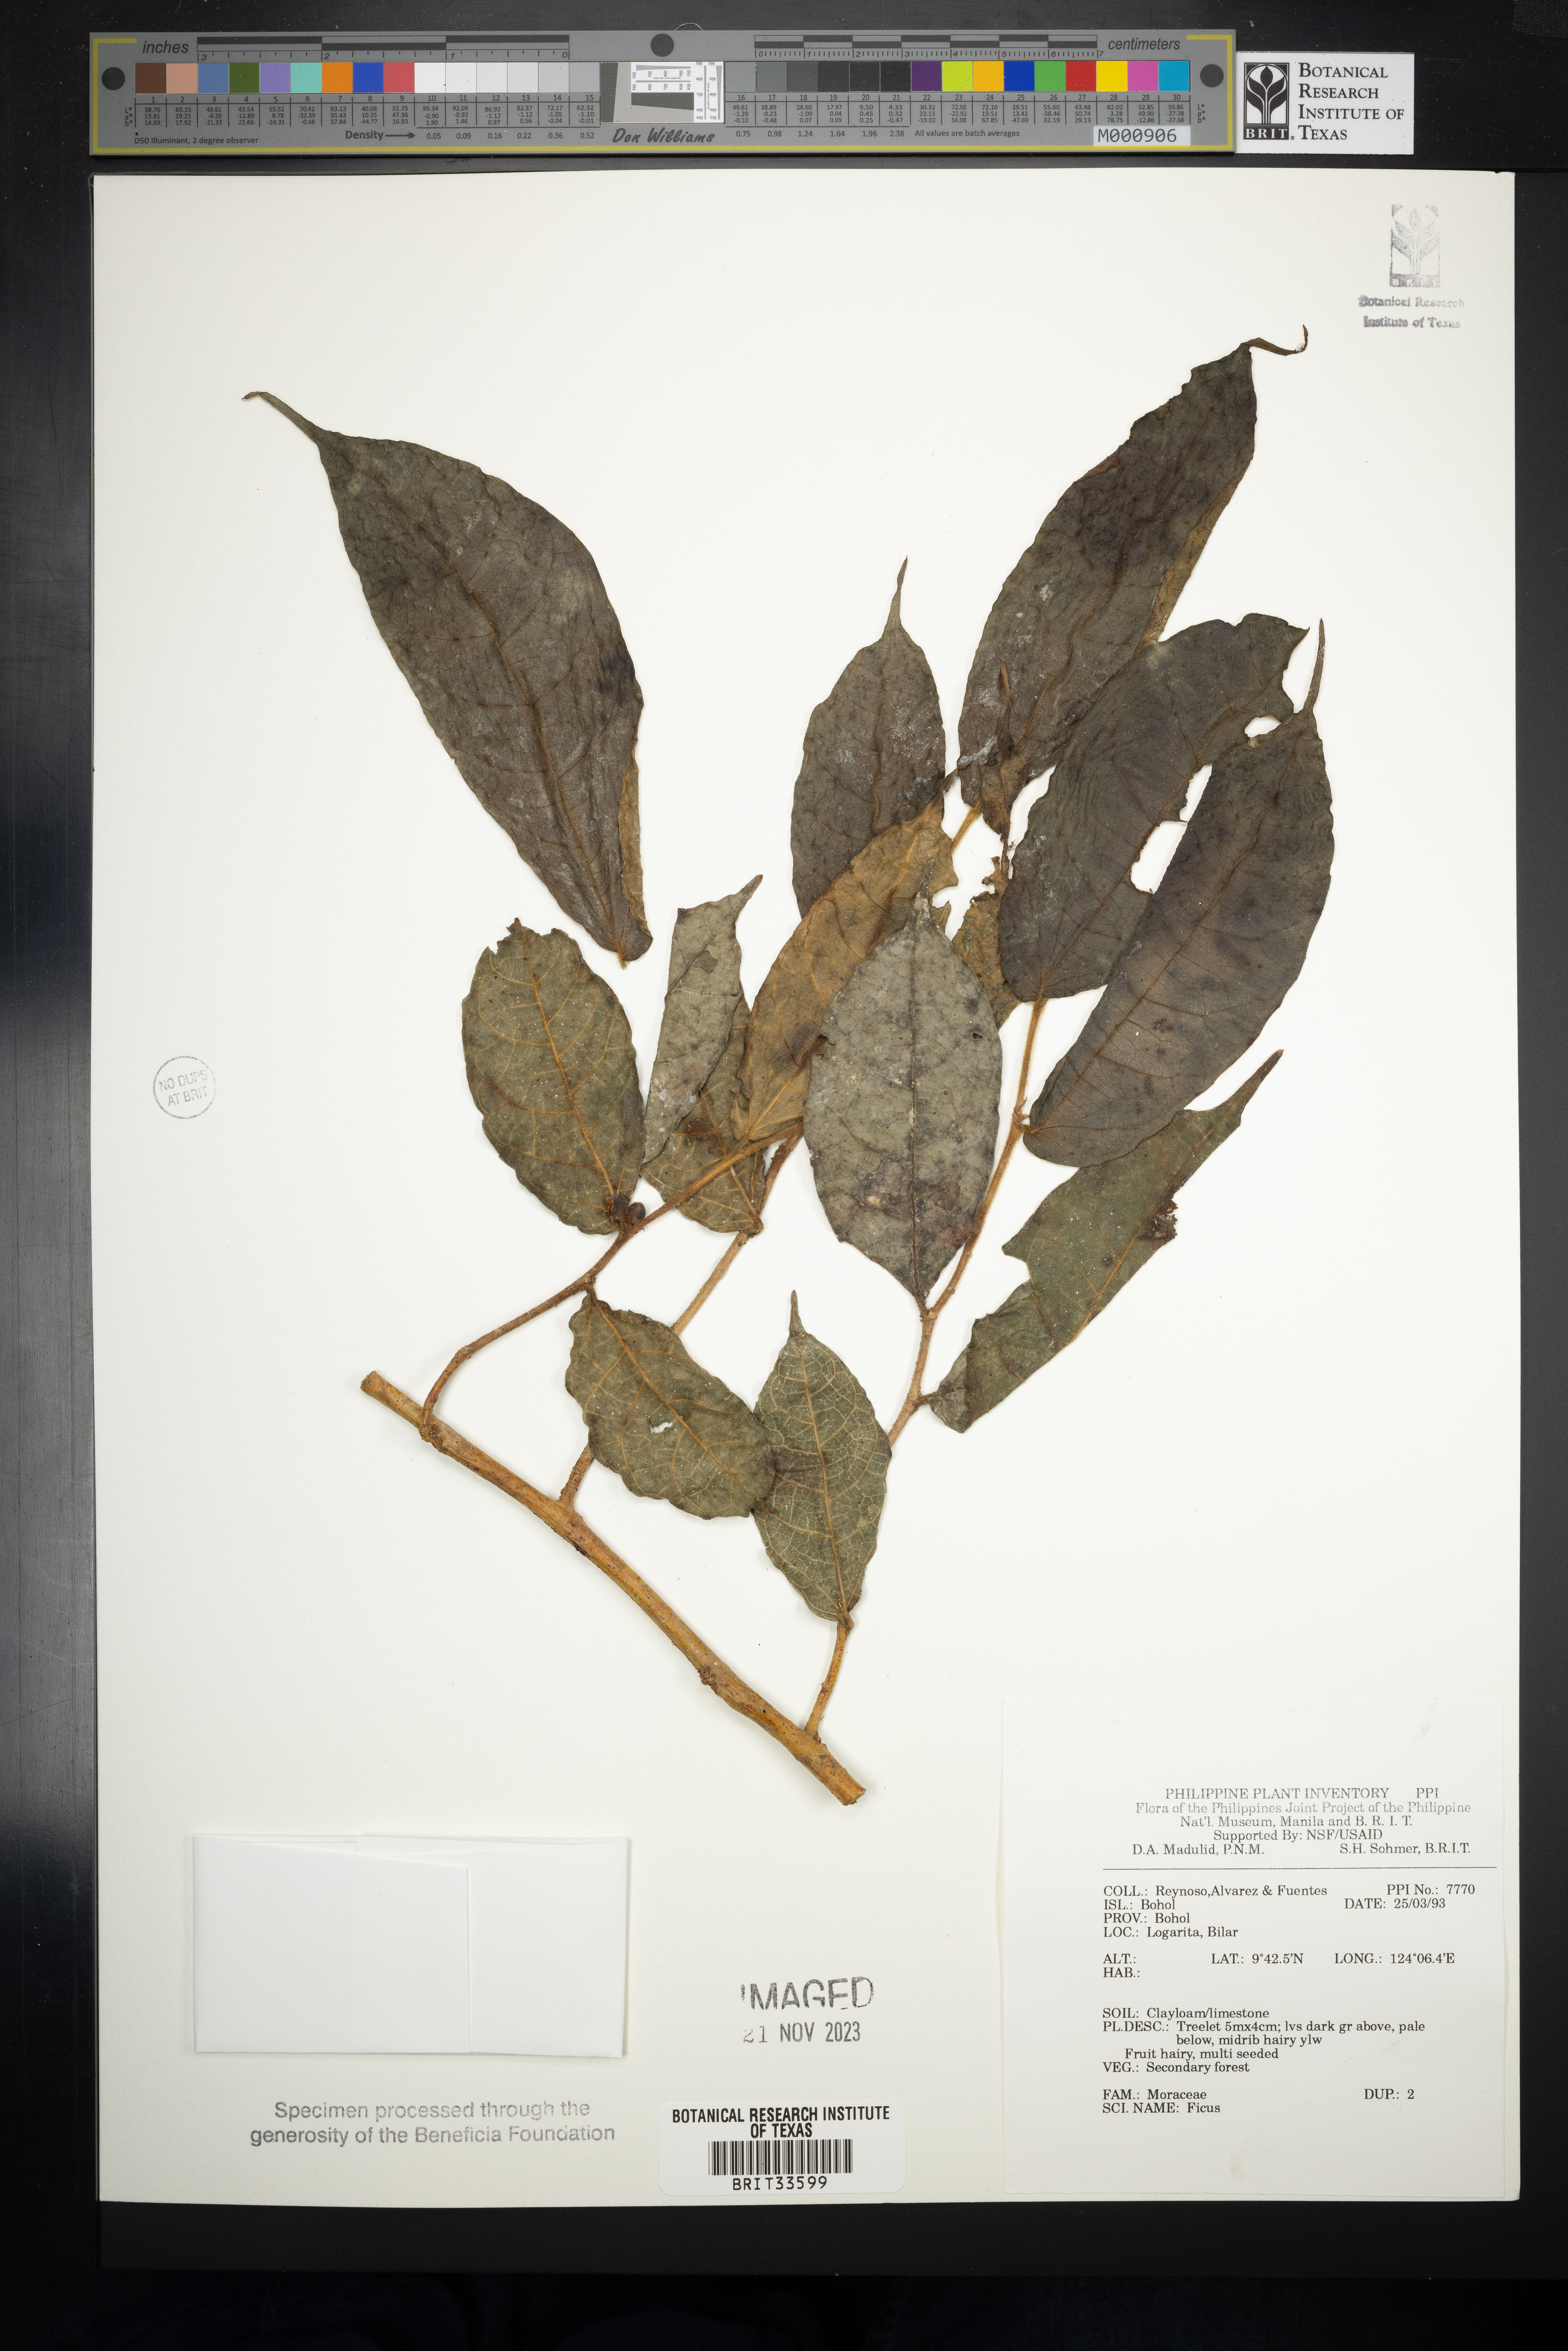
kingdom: Plantae
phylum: Tracheophyta
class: Magnoliopsida
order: Rosales
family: Moraceae
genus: Ficus
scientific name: Ficus
